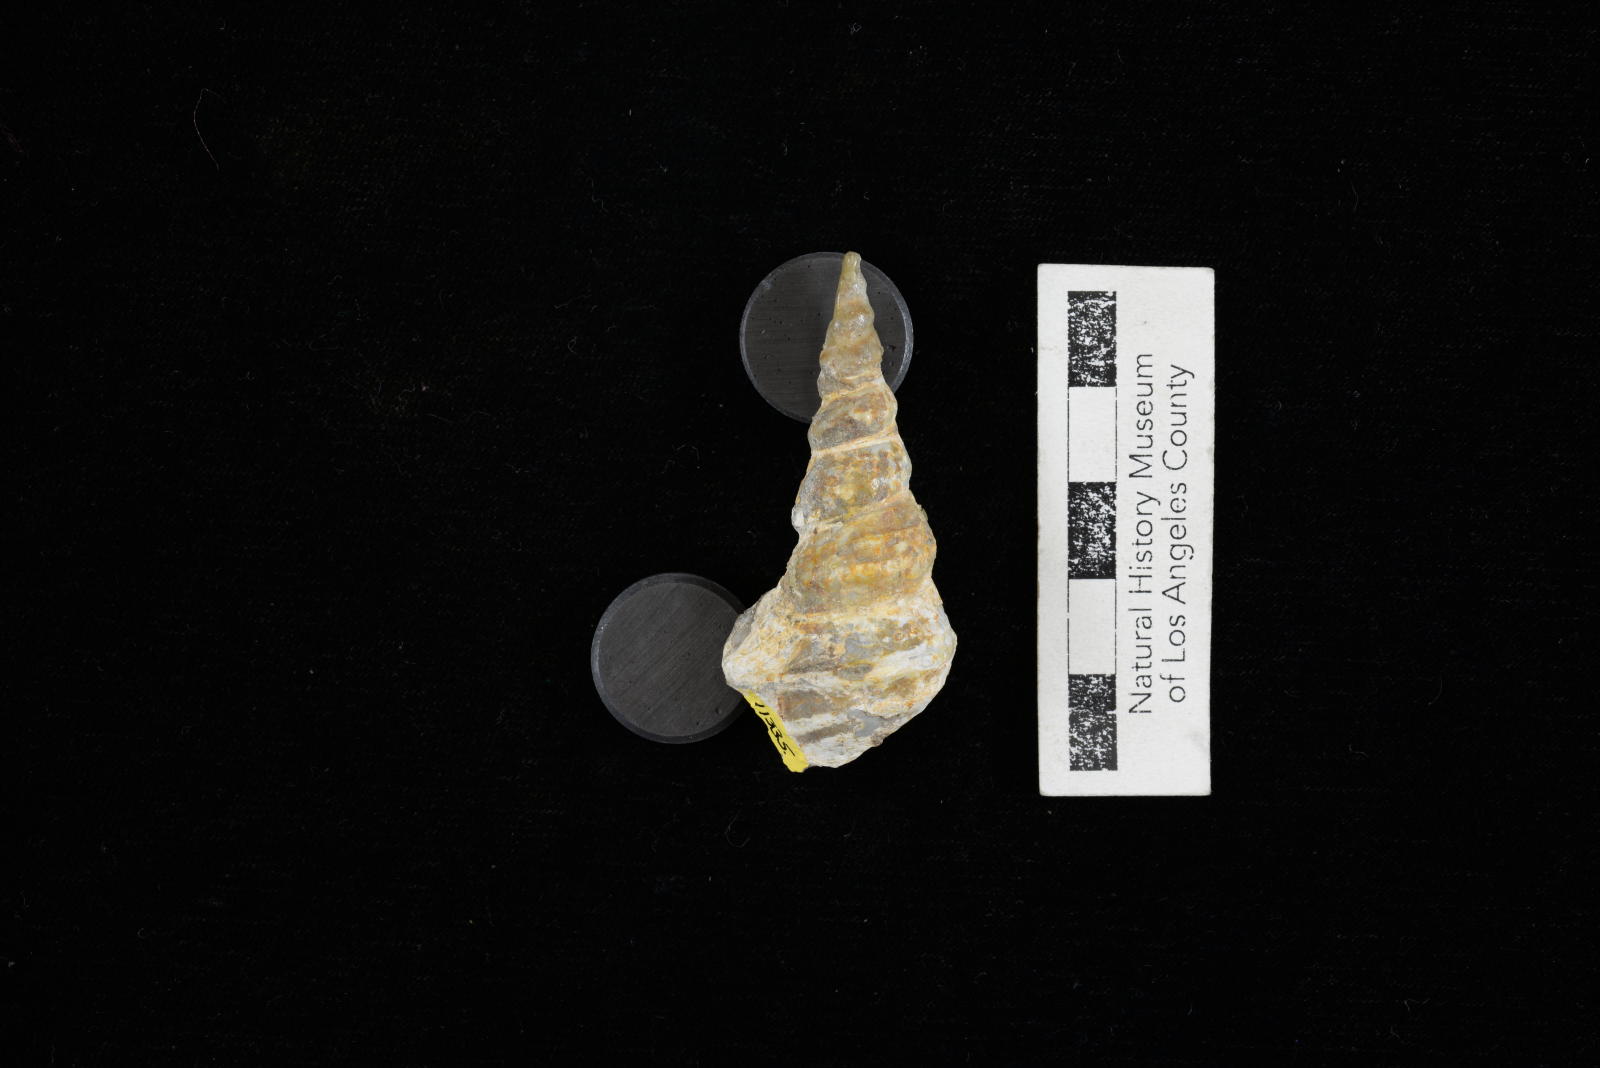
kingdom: Animalia
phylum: Mollusca
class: Gastropoda
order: Littorinimorpha
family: Aporrhaidae
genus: Anchura
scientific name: Anchura phaba
